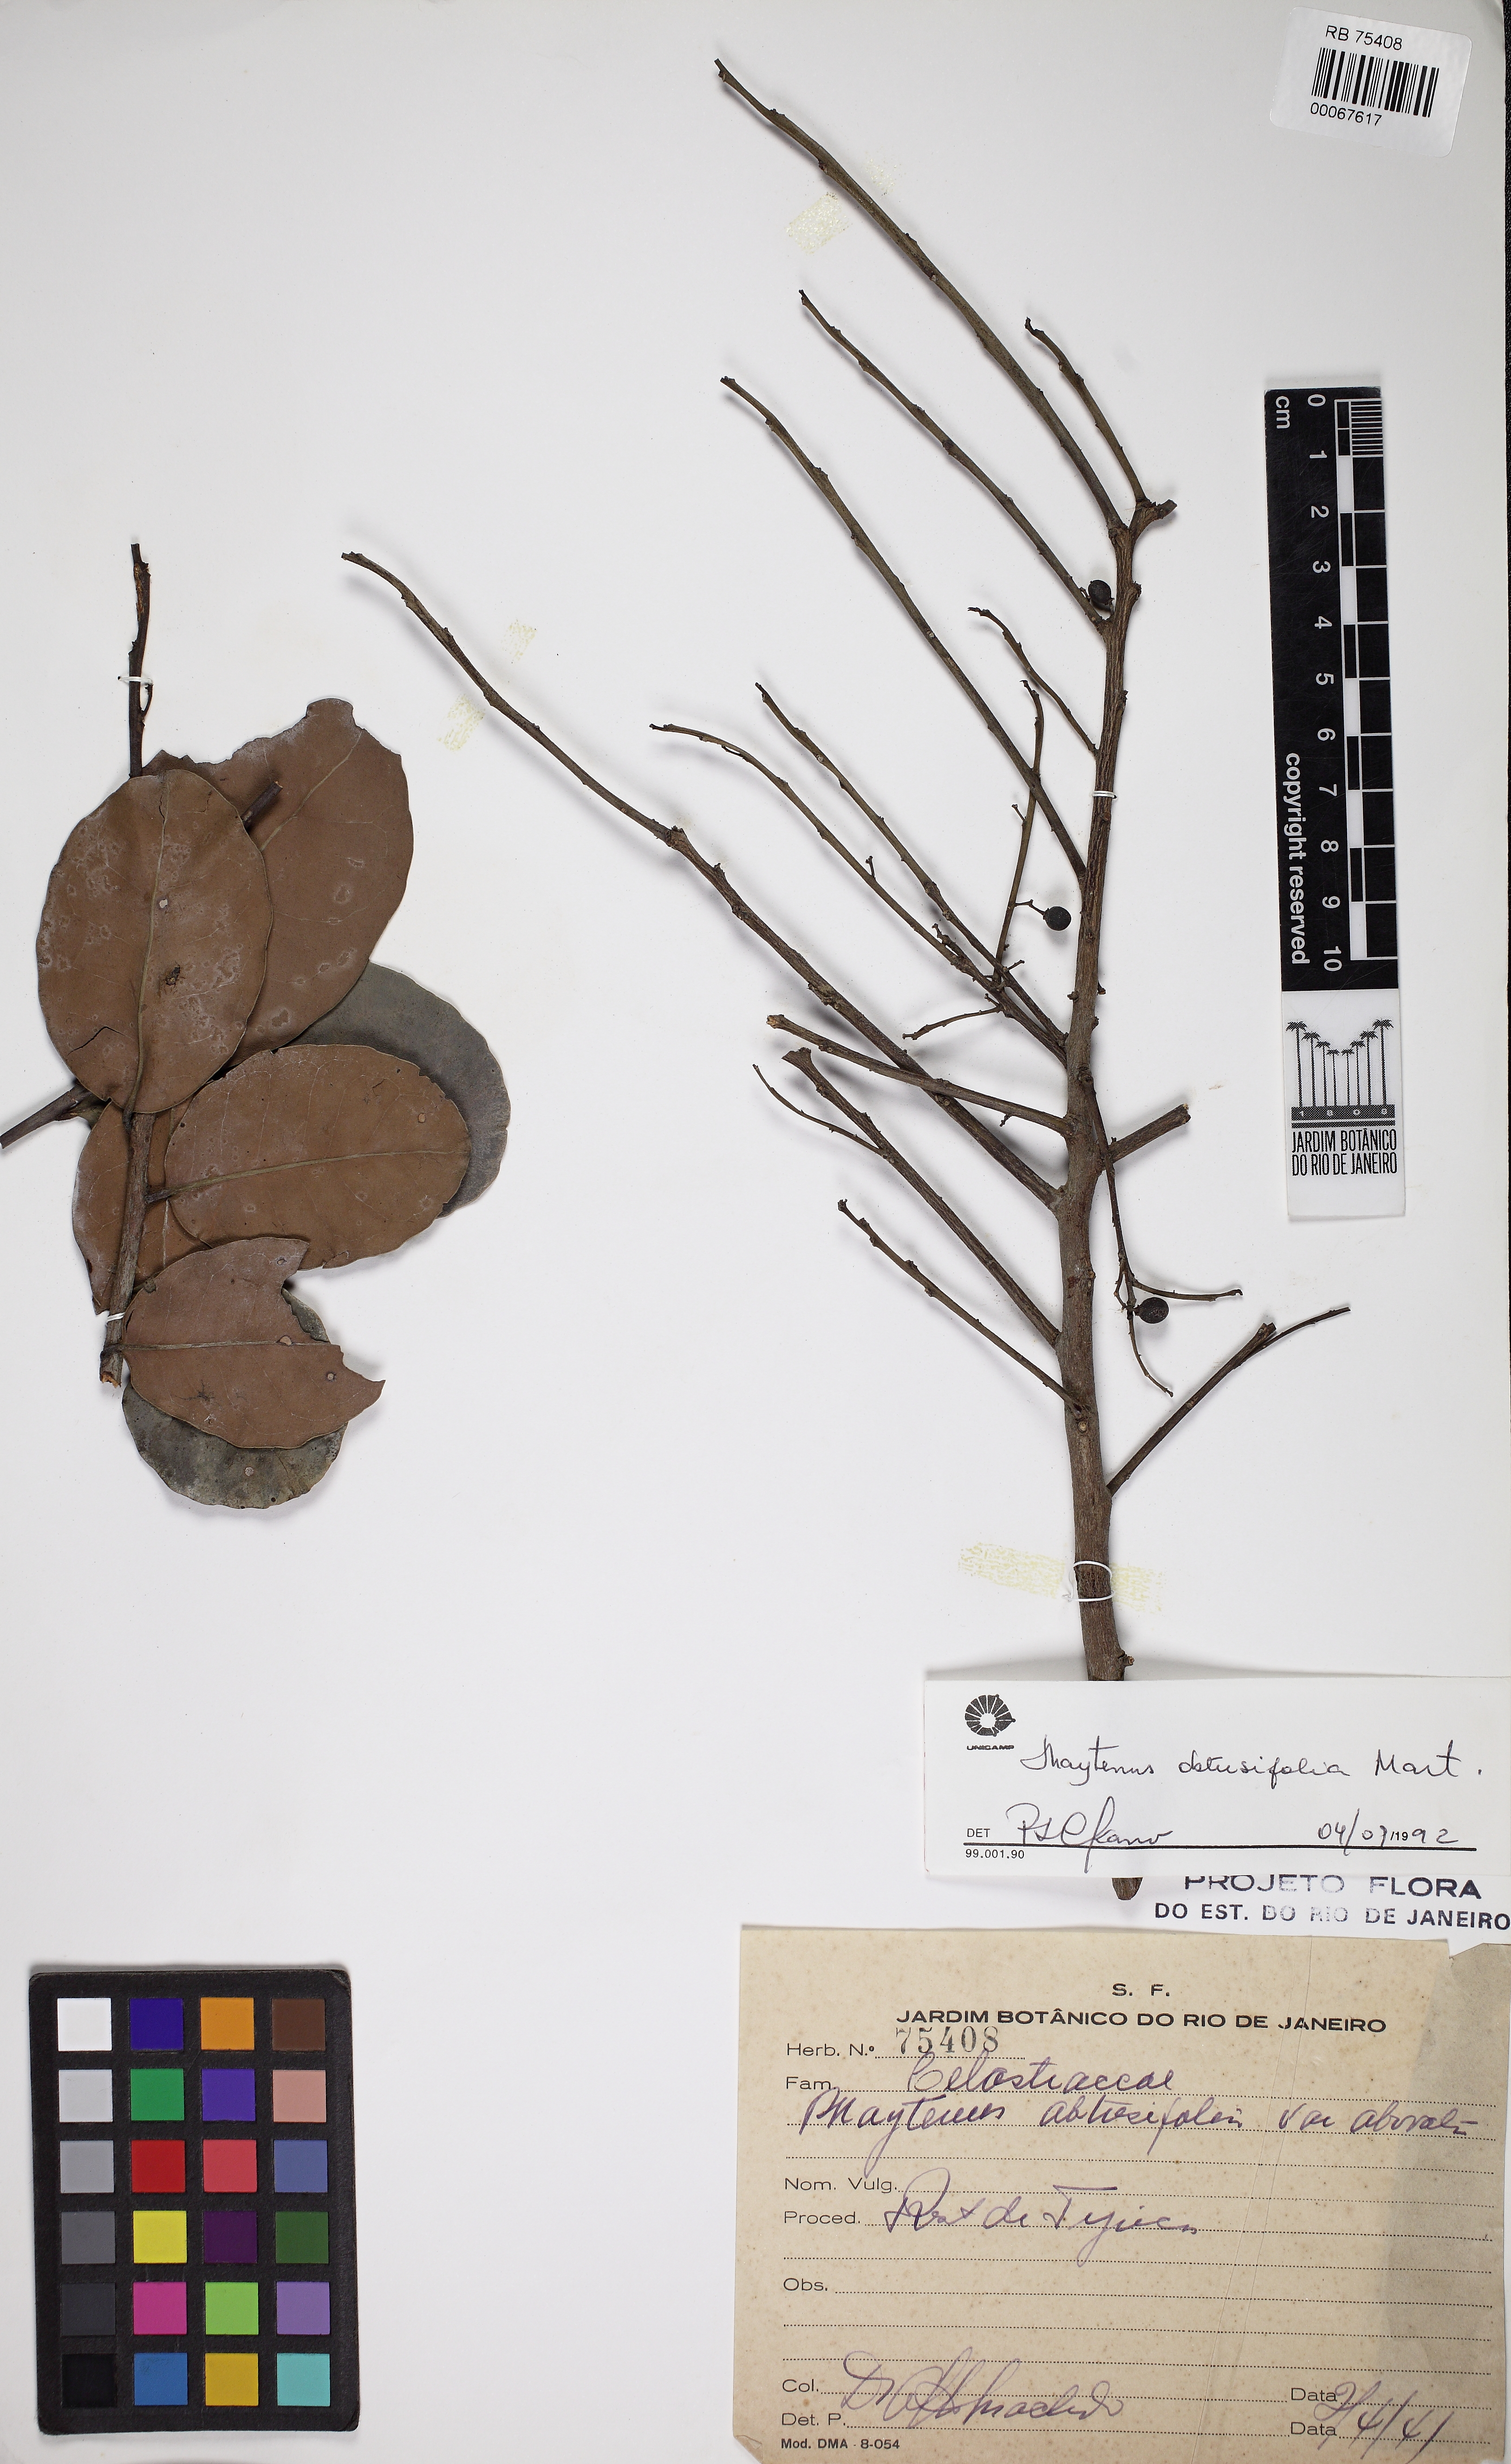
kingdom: Plantae
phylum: Tracheophyta
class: Magnoliopsida
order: Celastrales
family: Celastraceae
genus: Monteverdia
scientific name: Monteverdia obtusifolia
